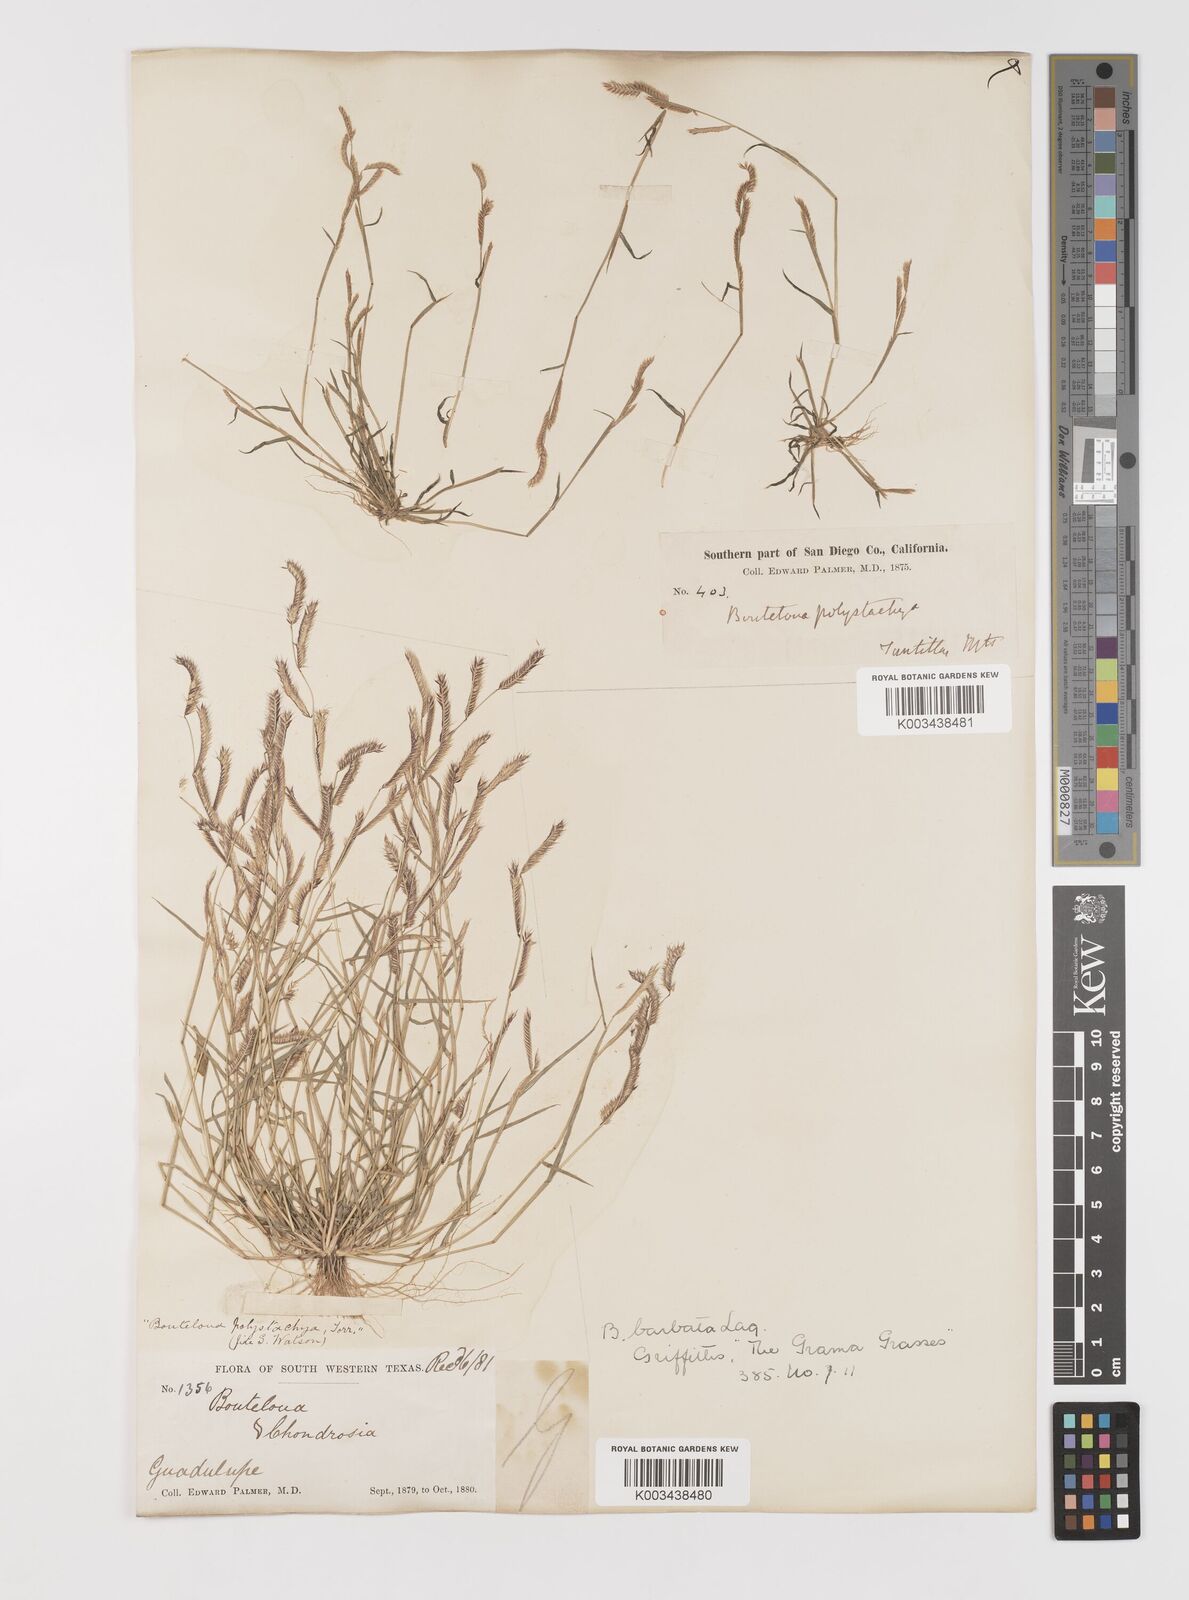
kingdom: Plantae
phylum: Tracheophyta
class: Liliopsida
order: Poales
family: Poaceae
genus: Bouteloua
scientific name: Bouteloua
